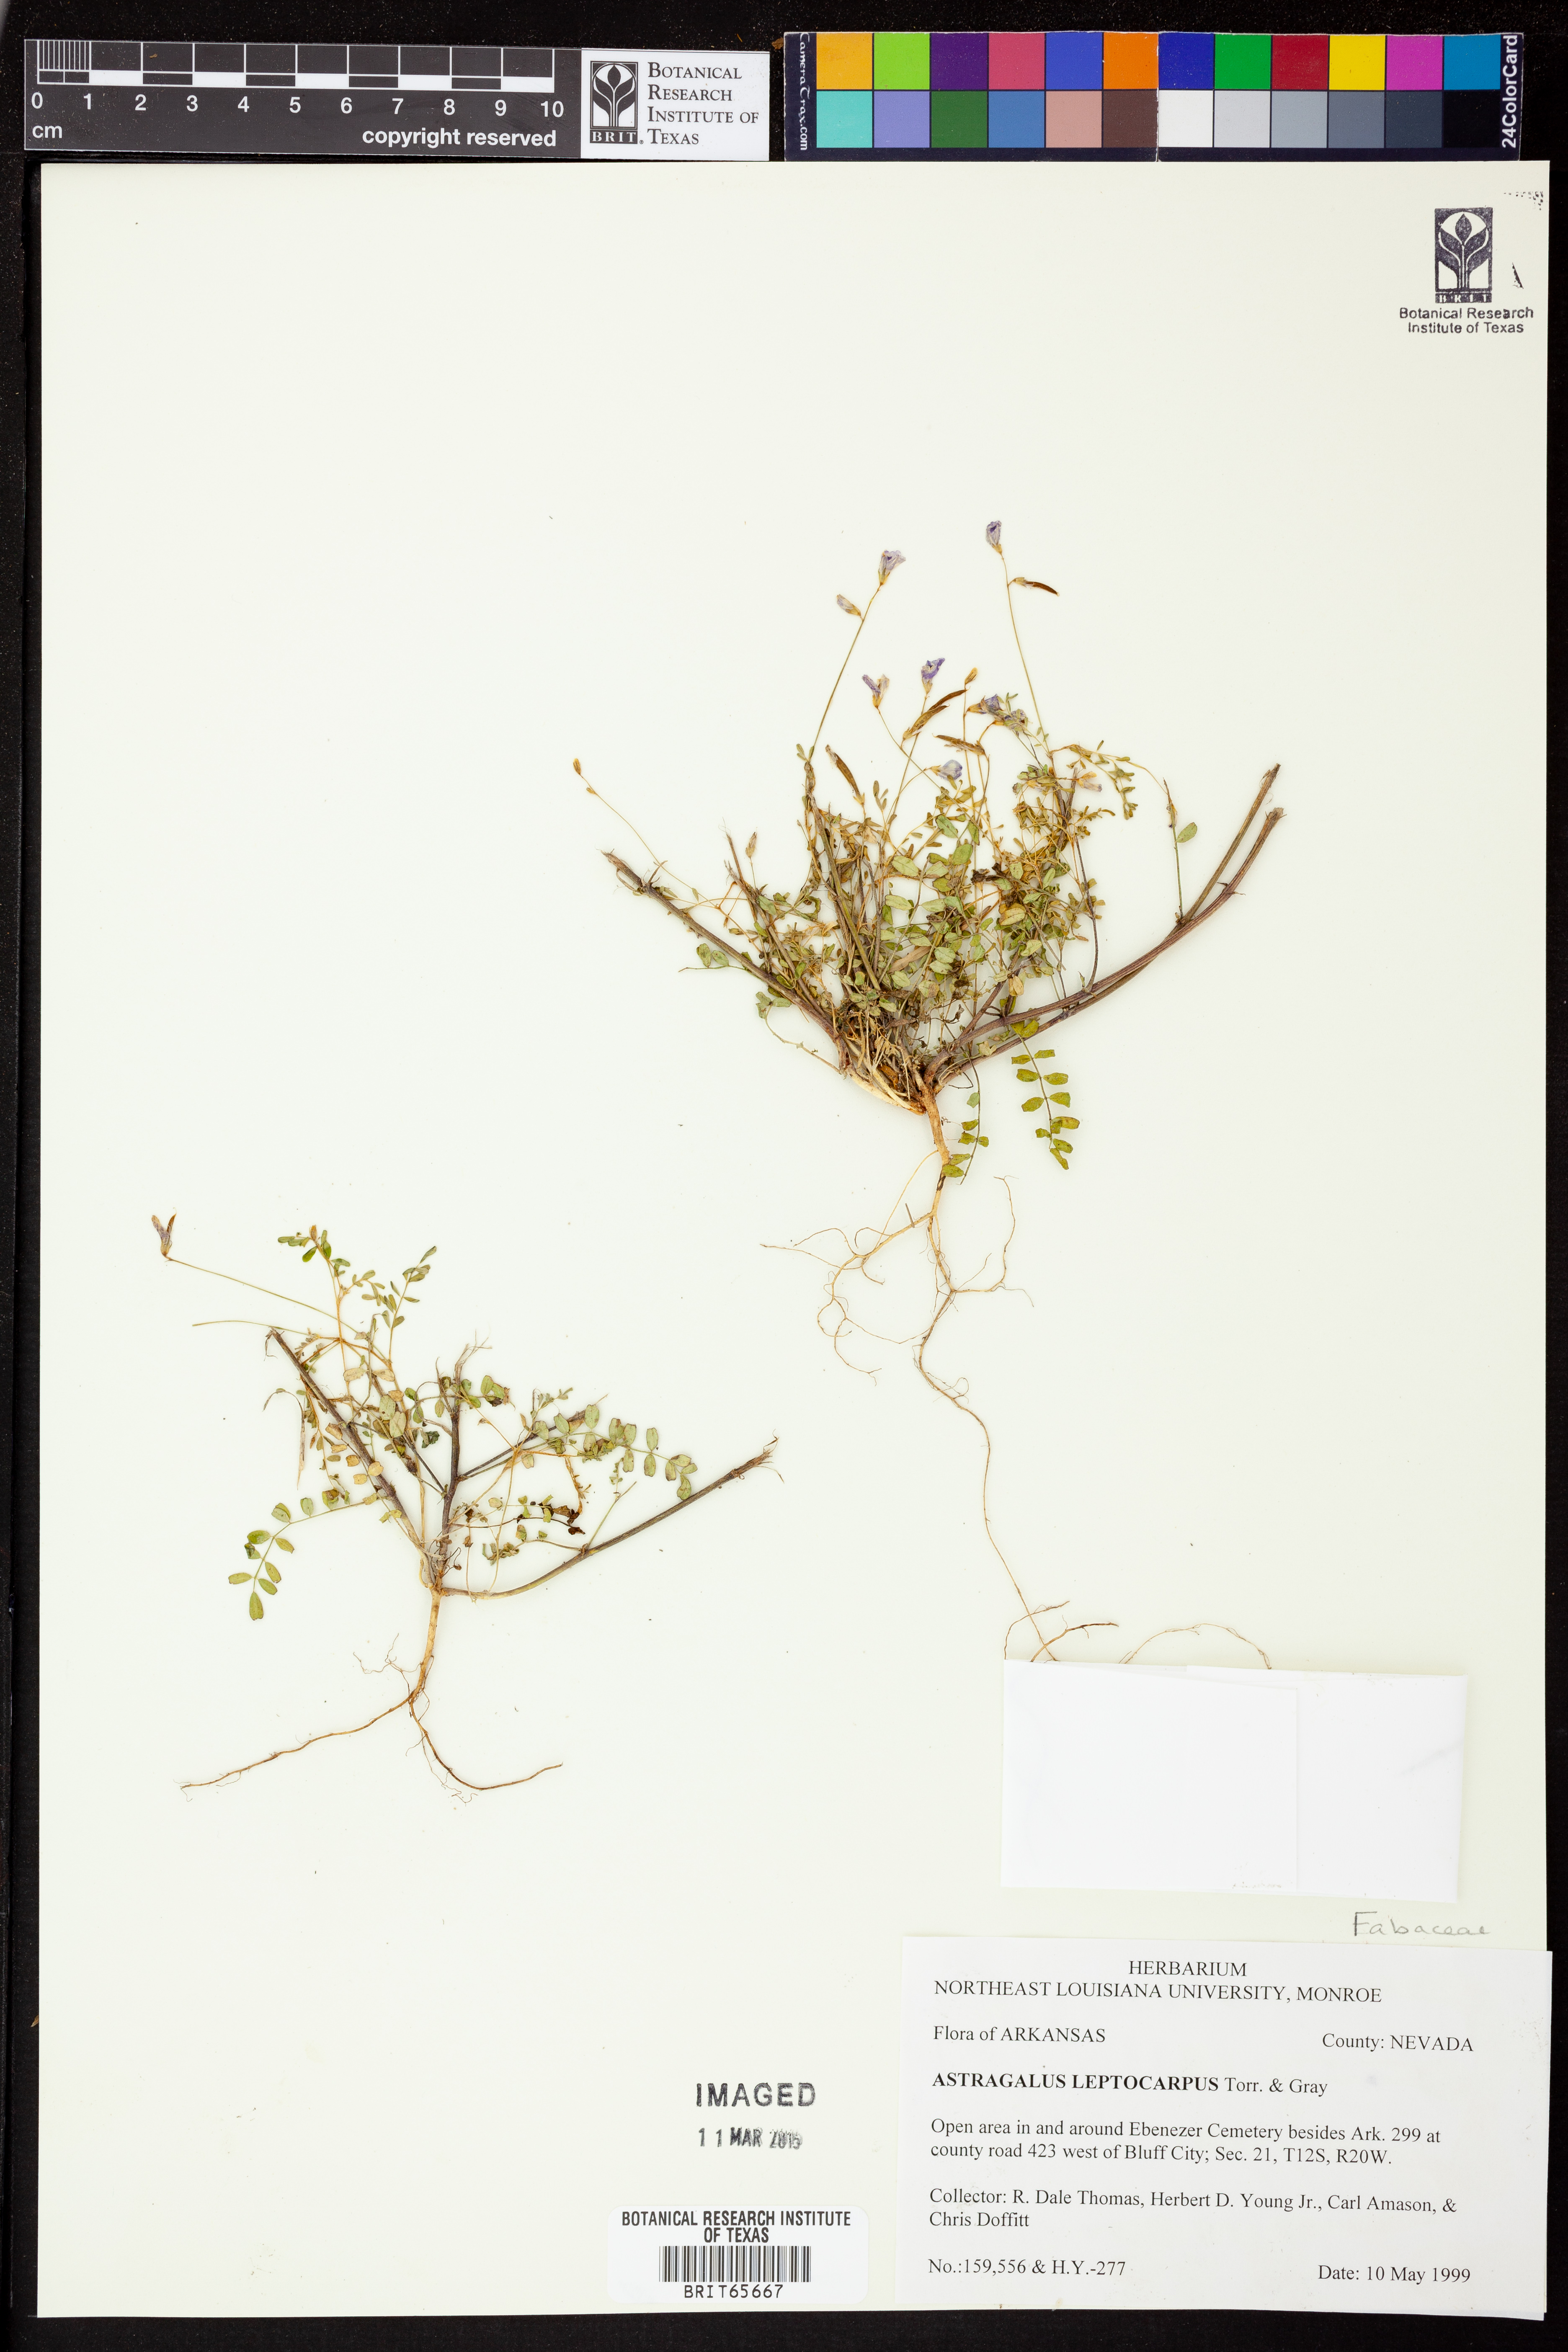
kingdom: Plantae
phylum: Tracheophyta
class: Magnoliopsida
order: Fabales
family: Fabaceae
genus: Astragalus
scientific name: Astragalus leptocarpus
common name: Bodkin milk-vetch
